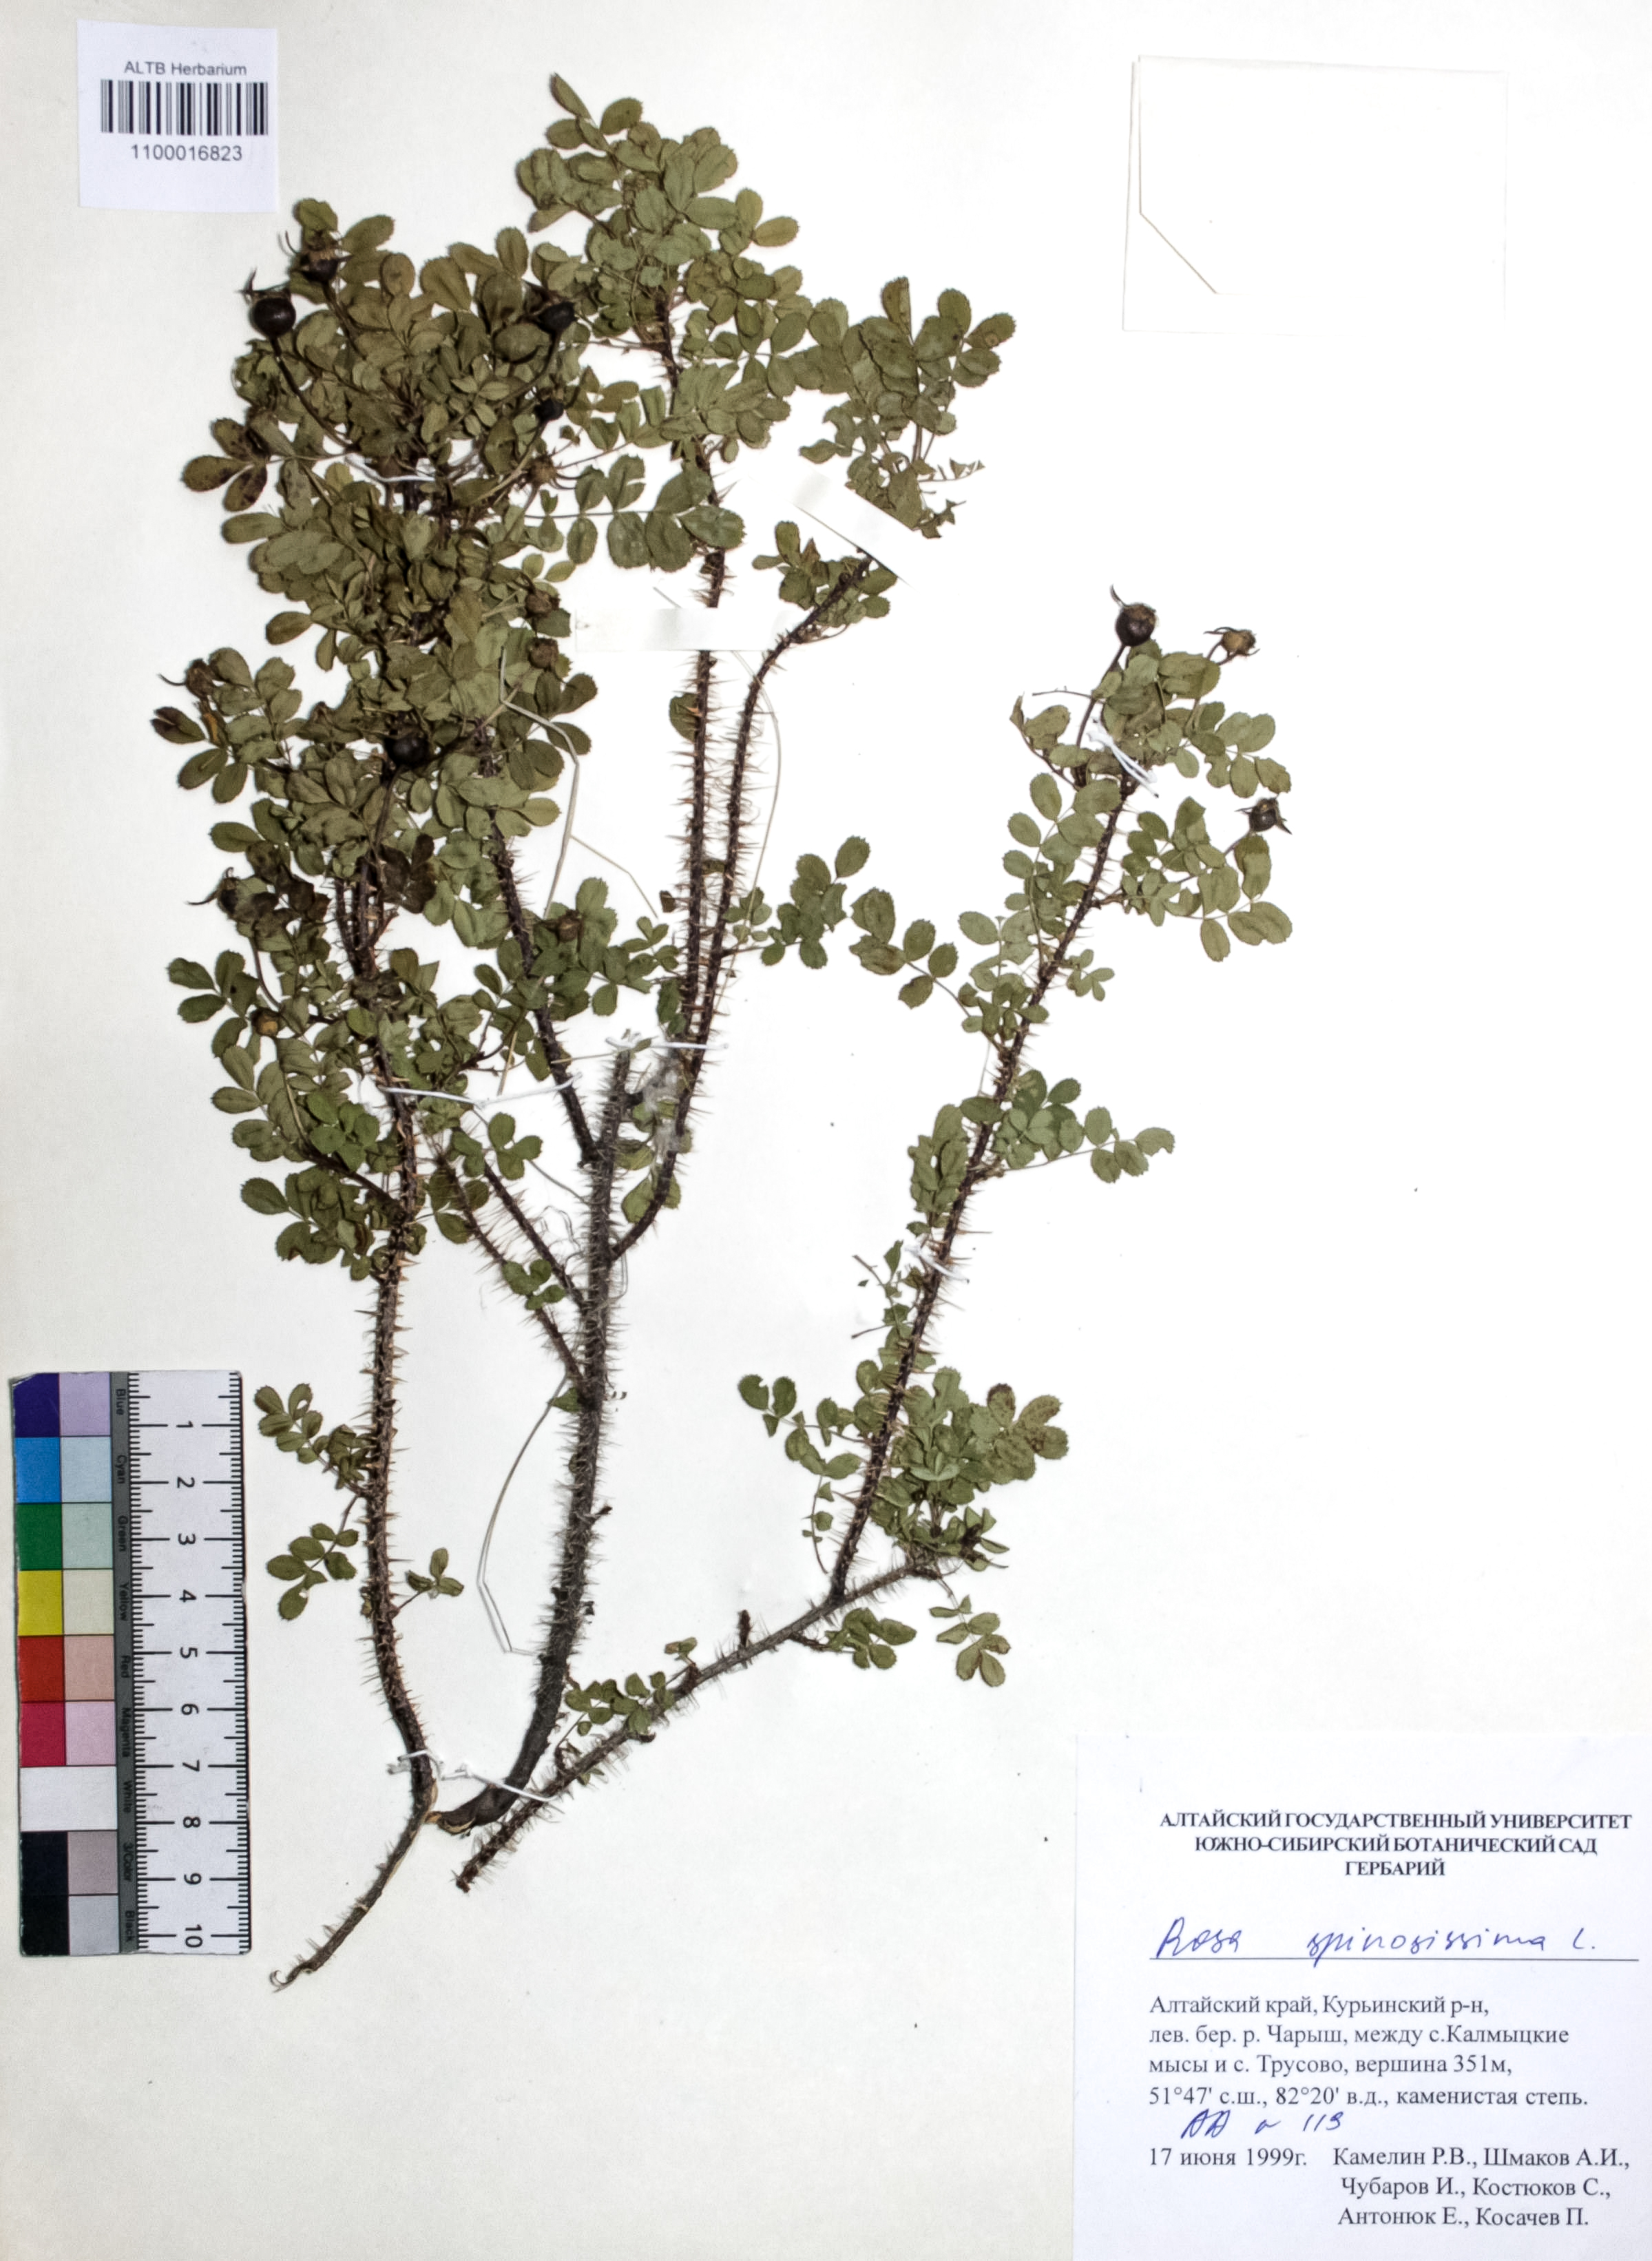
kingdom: Plantae
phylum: Tracheophyta
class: Magnoliopsida
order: Rosales
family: Rosaceae
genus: Rosa
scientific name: Rosa spinosissima
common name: Burnet rose
